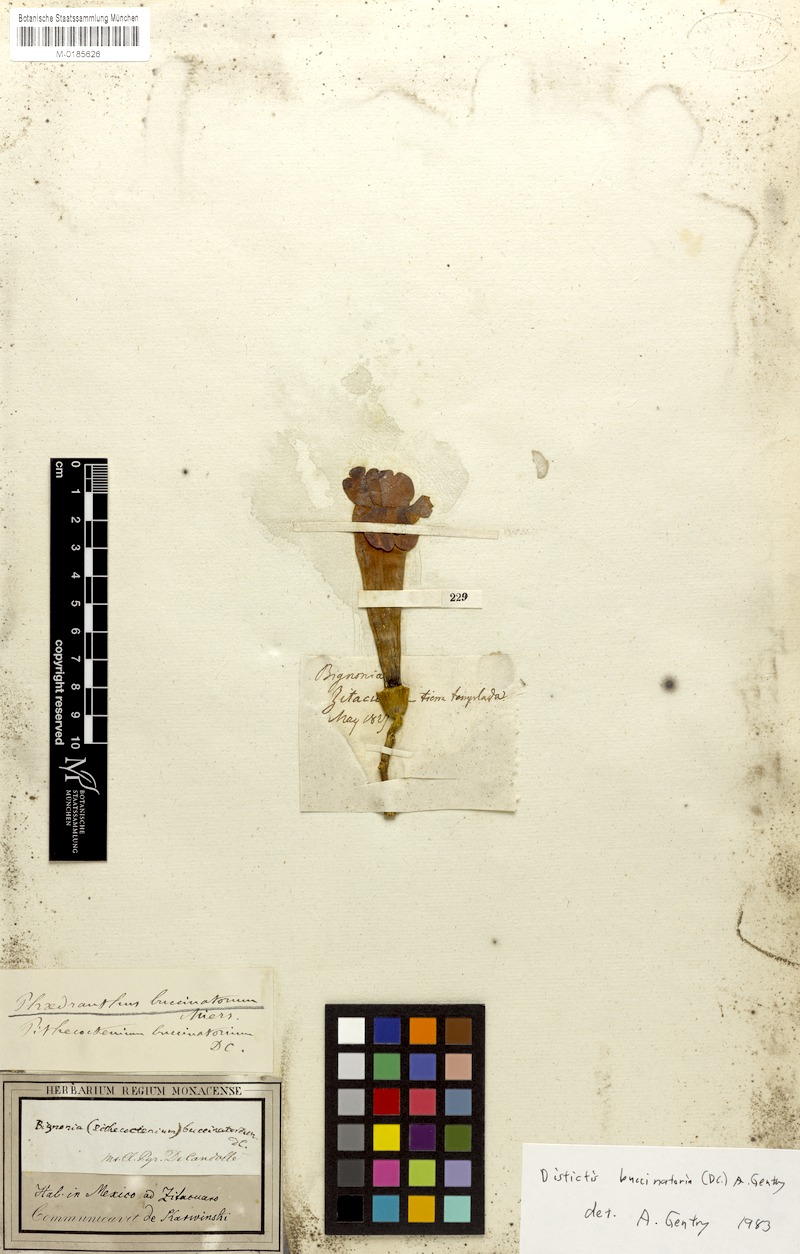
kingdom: Plantae
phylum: Tracheophyta
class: Magnoliopsida
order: Lamiales
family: Bignoniaceae
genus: Amphilophium
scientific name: Amphilophium buccinatorium
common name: Mexican blood-flower
